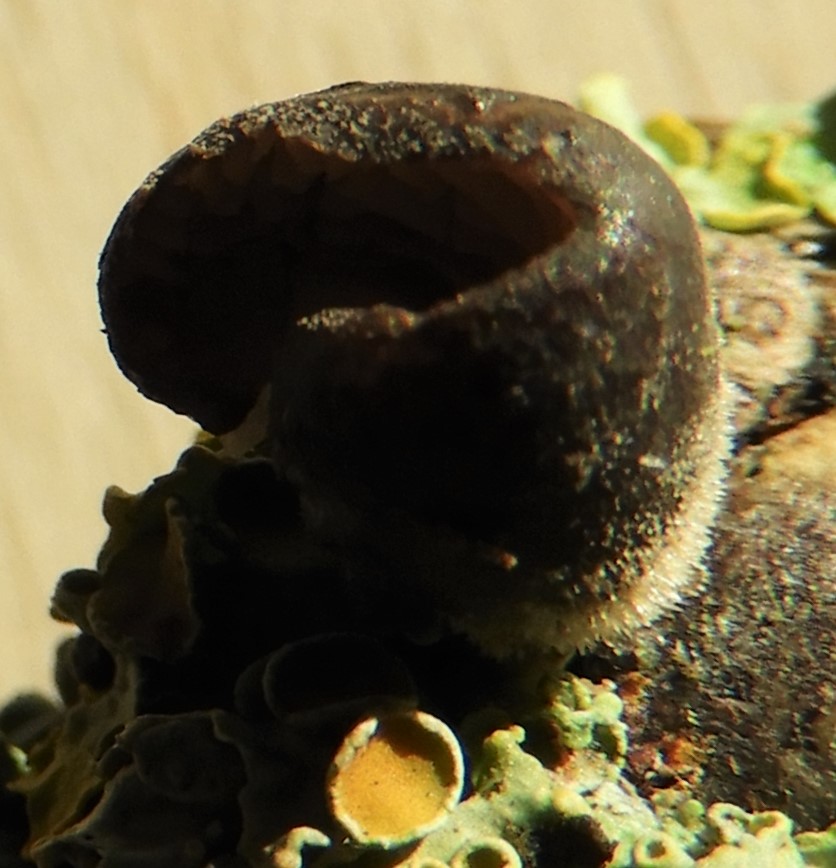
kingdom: Fungi
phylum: Basidiomycota
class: Agaricomycetes
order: Agaricales
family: Pleurotaceae
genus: Hohenbuehelia
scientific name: Hohenbuehelia
